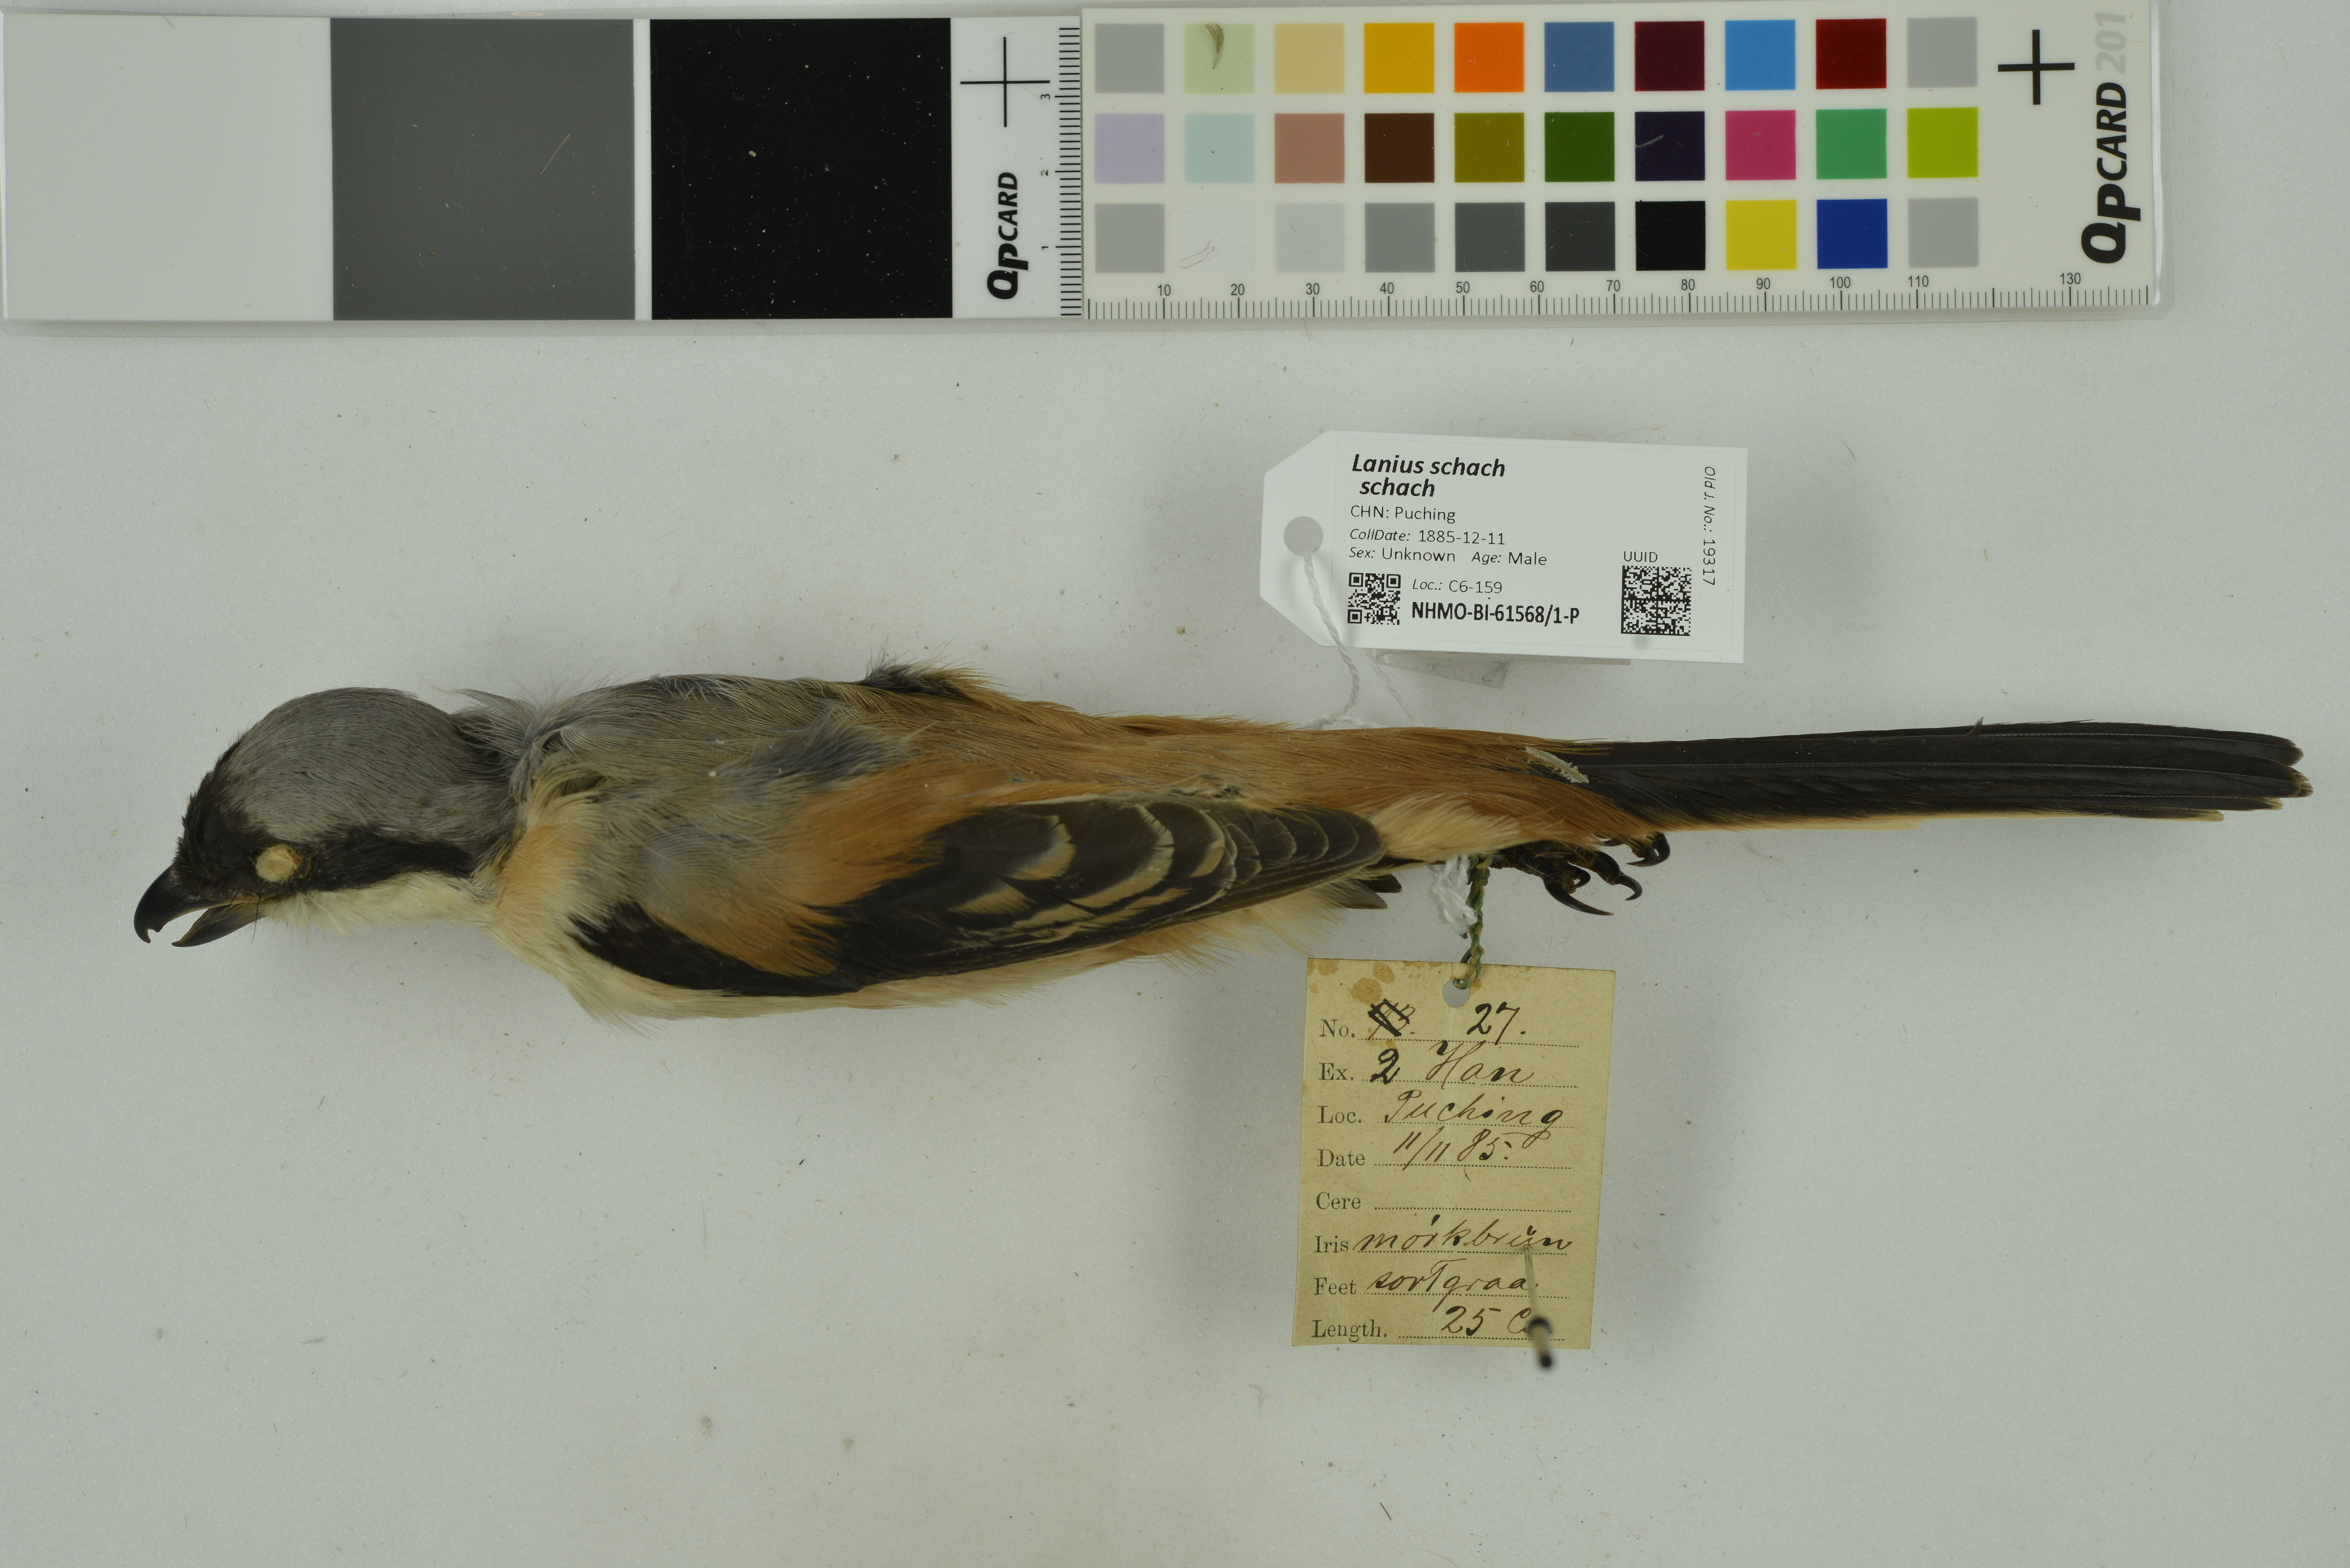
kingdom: Animalia
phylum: Chordata
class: Aves
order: Passeriformes
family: Laniidae
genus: Lanius
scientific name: Lanius schach
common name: Long-tailed shrike
